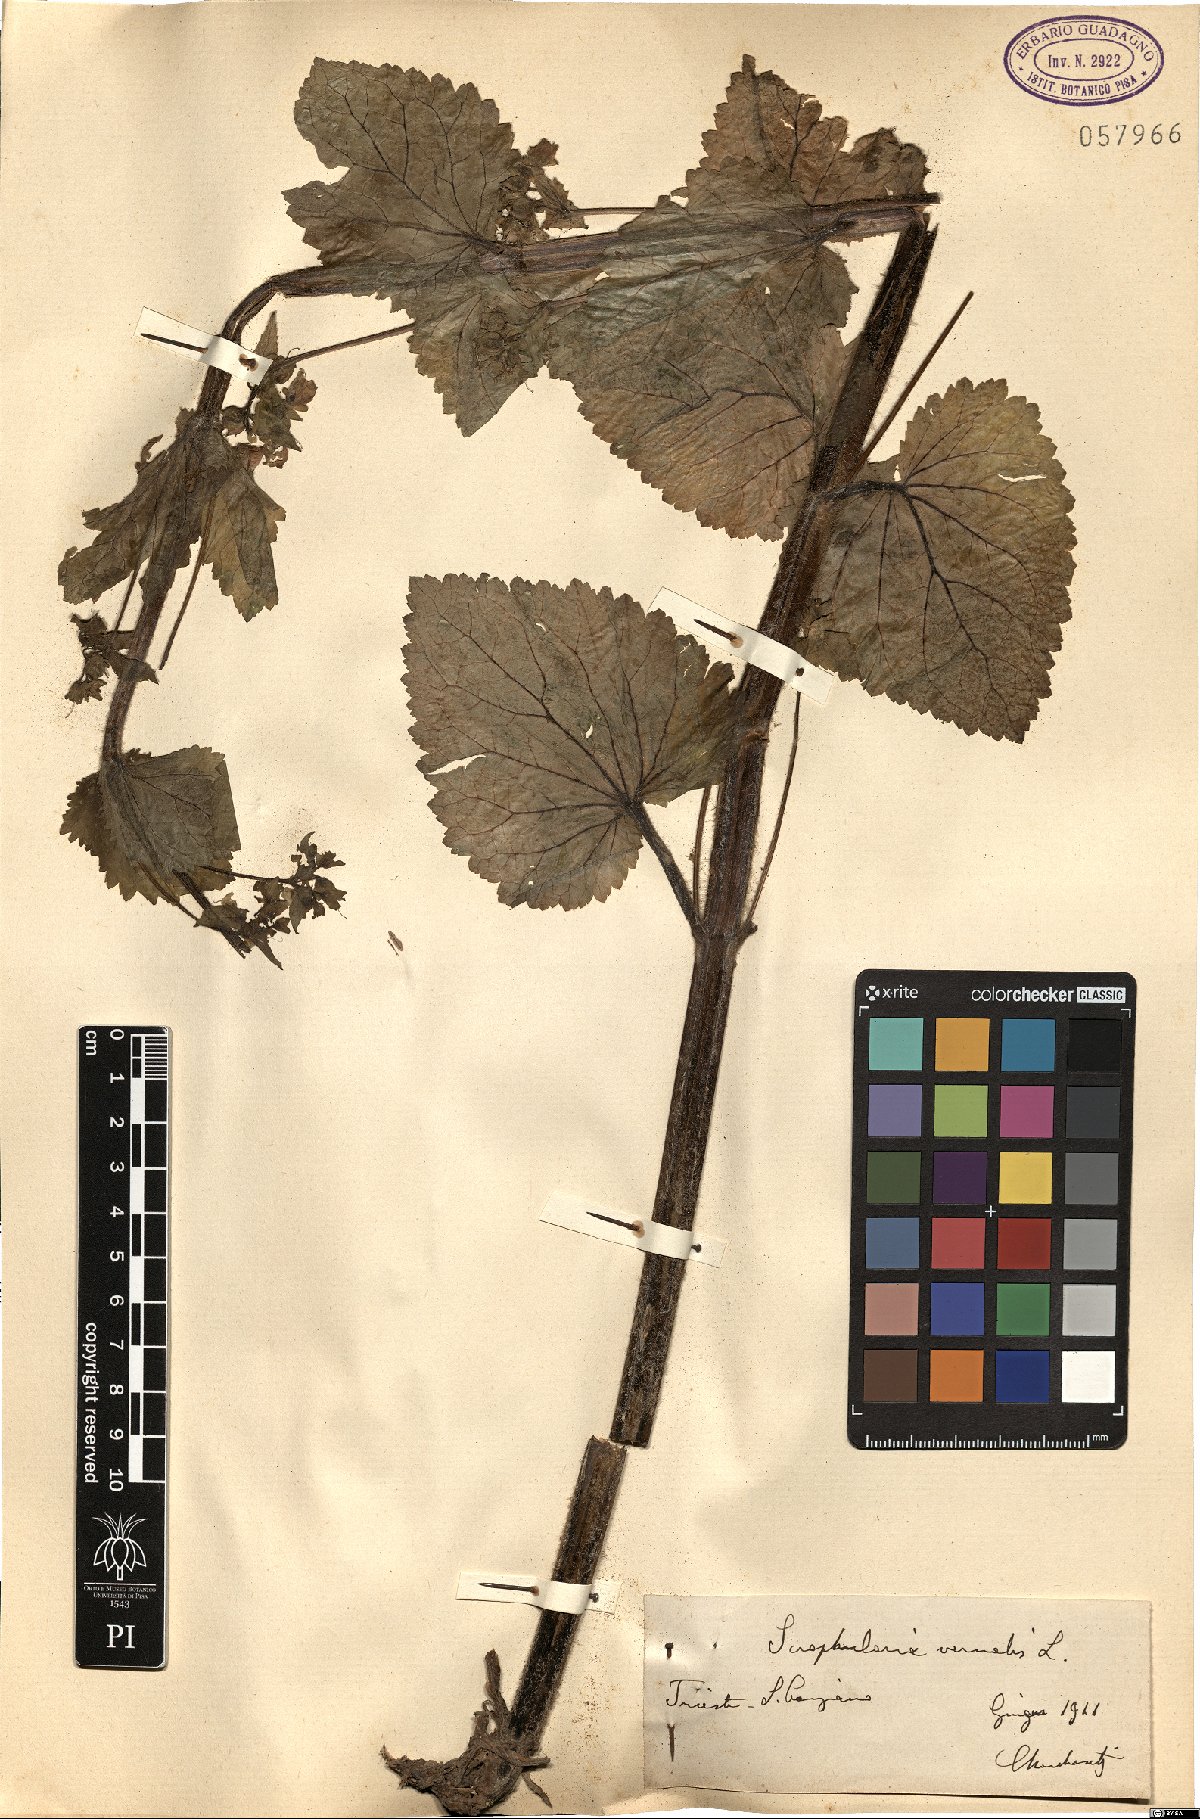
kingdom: Plantae
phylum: Tracheophyta
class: Magnoliopsida
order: Lamiales
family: Scrophulariaceae
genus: Scrophularia
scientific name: Scrophularia vernalis
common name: Yellow figwort
